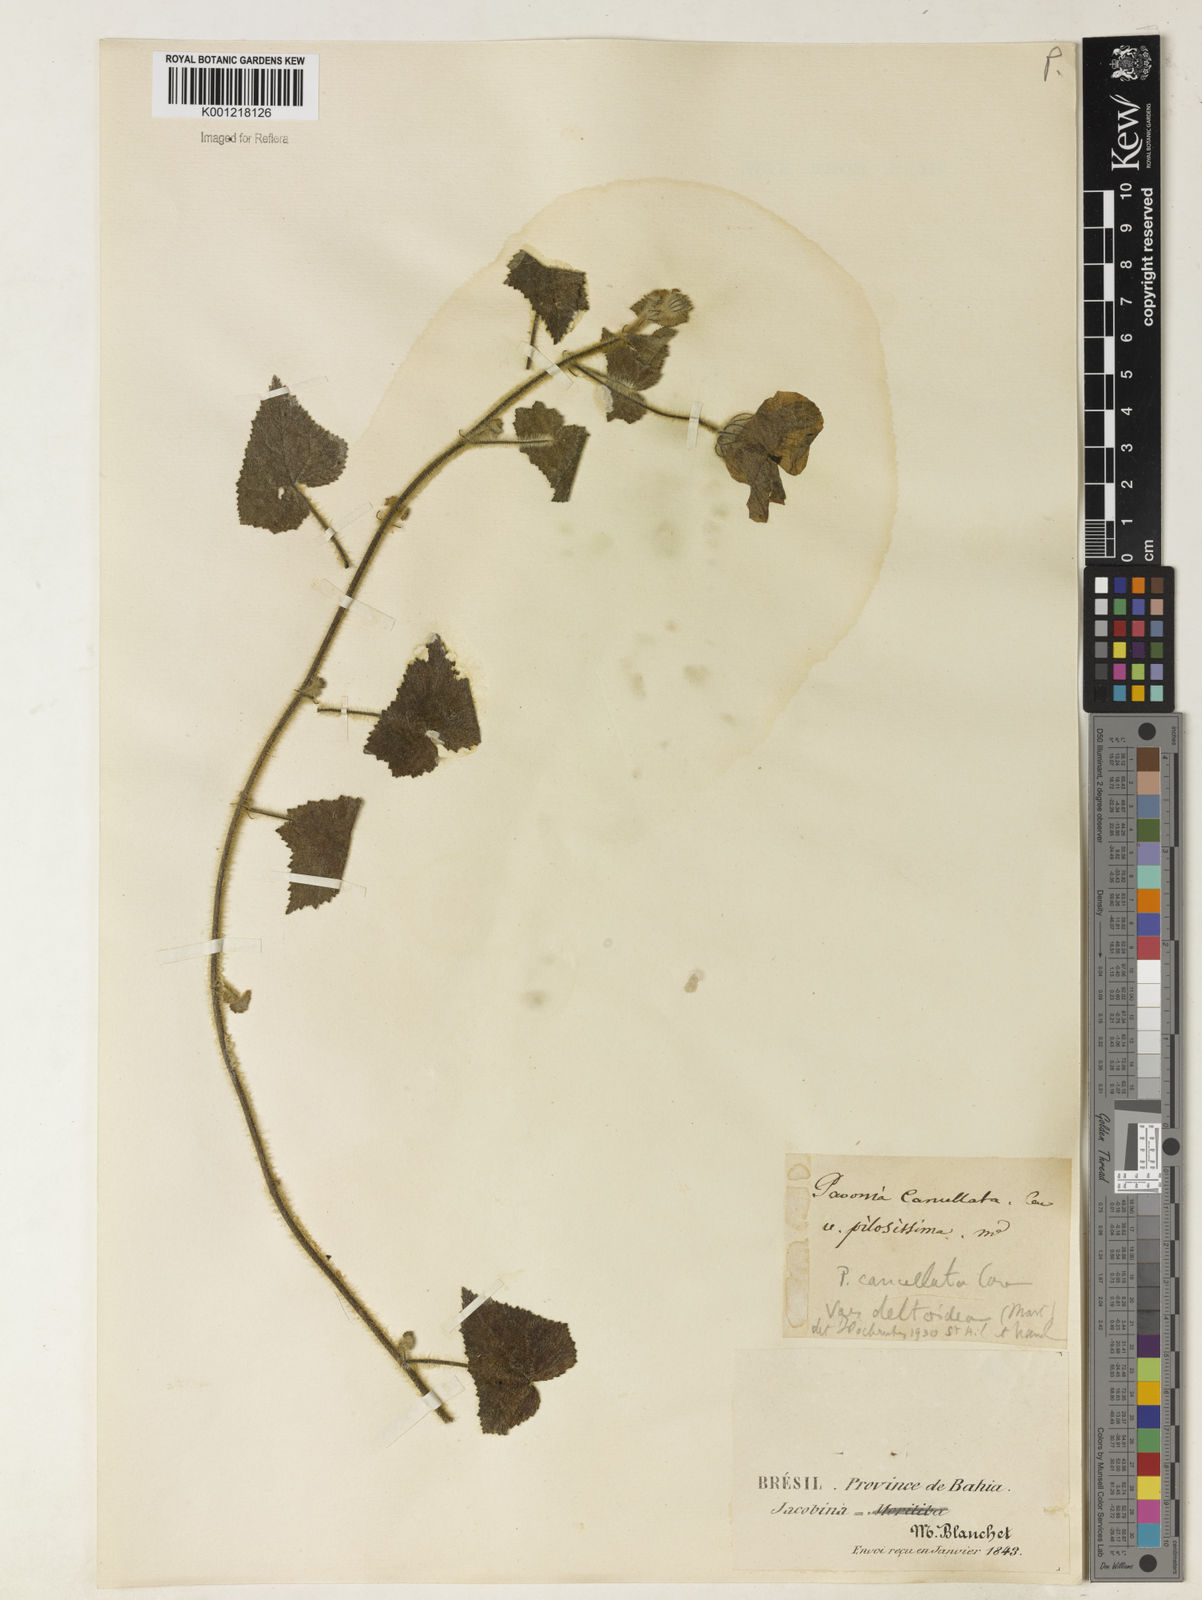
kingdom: Plantae
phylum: Tracheophyta
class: Magnoliopsida
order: Malvales
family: Malvaceae
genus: Pavonia
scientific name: Pavonia cancellata
